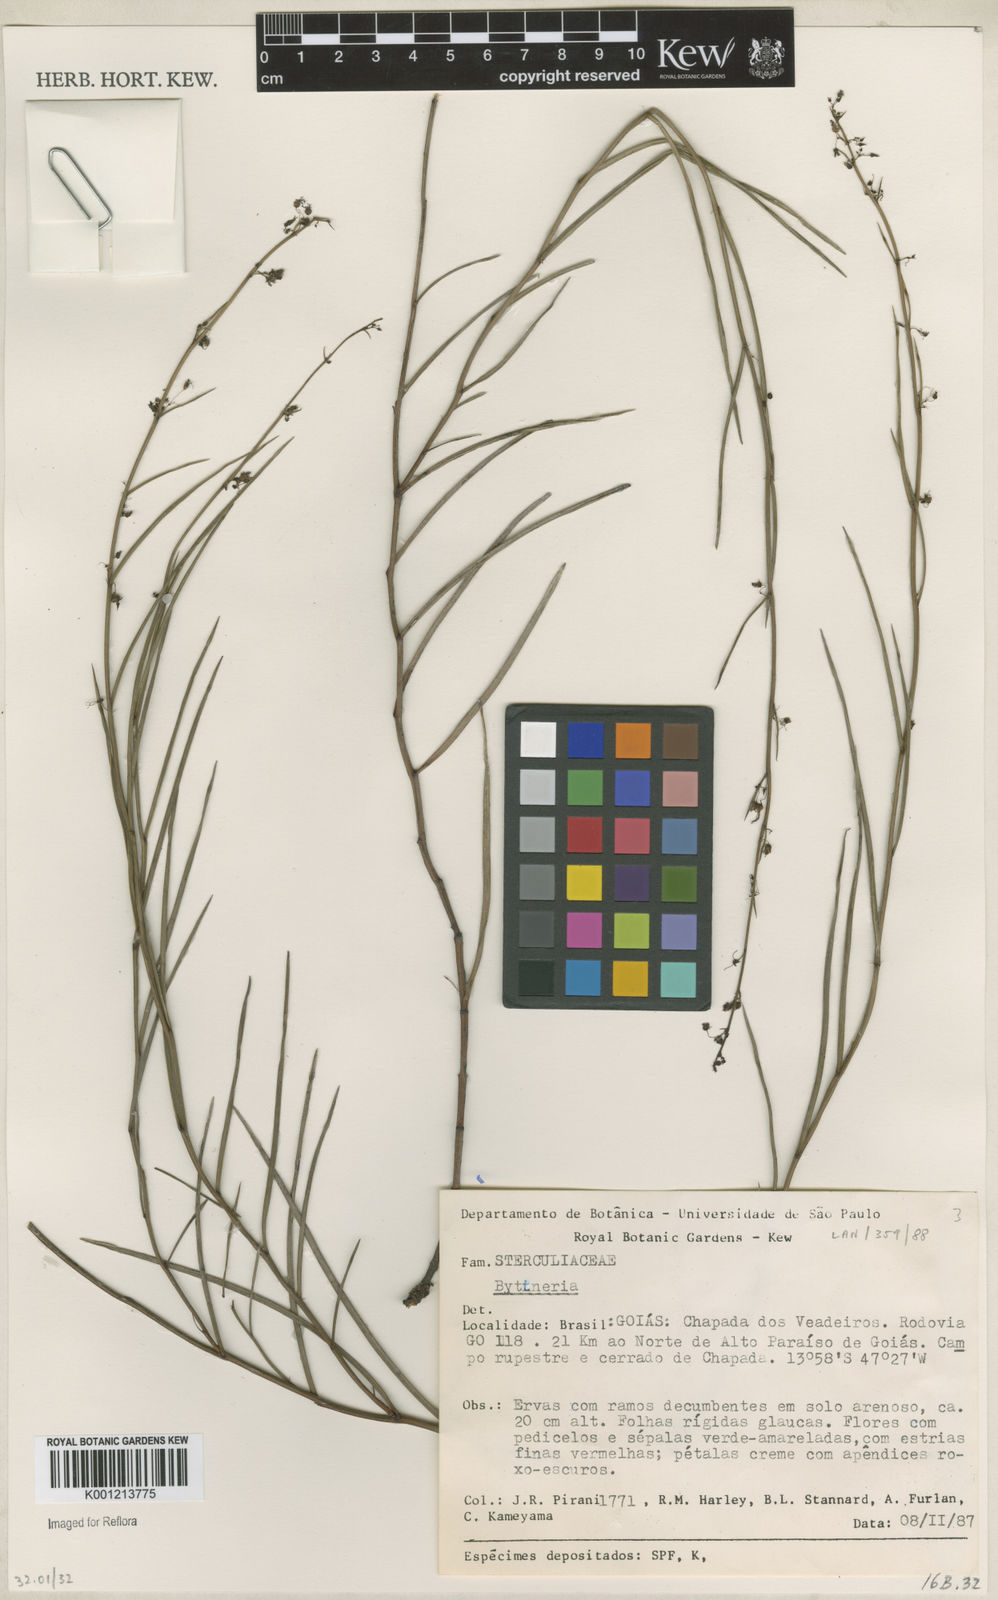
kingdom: Plantae
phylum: Tracheophyta
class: Magnoliopsida
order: Malvales
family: Malvaceae
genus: Byttneria
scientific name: Byttneria
